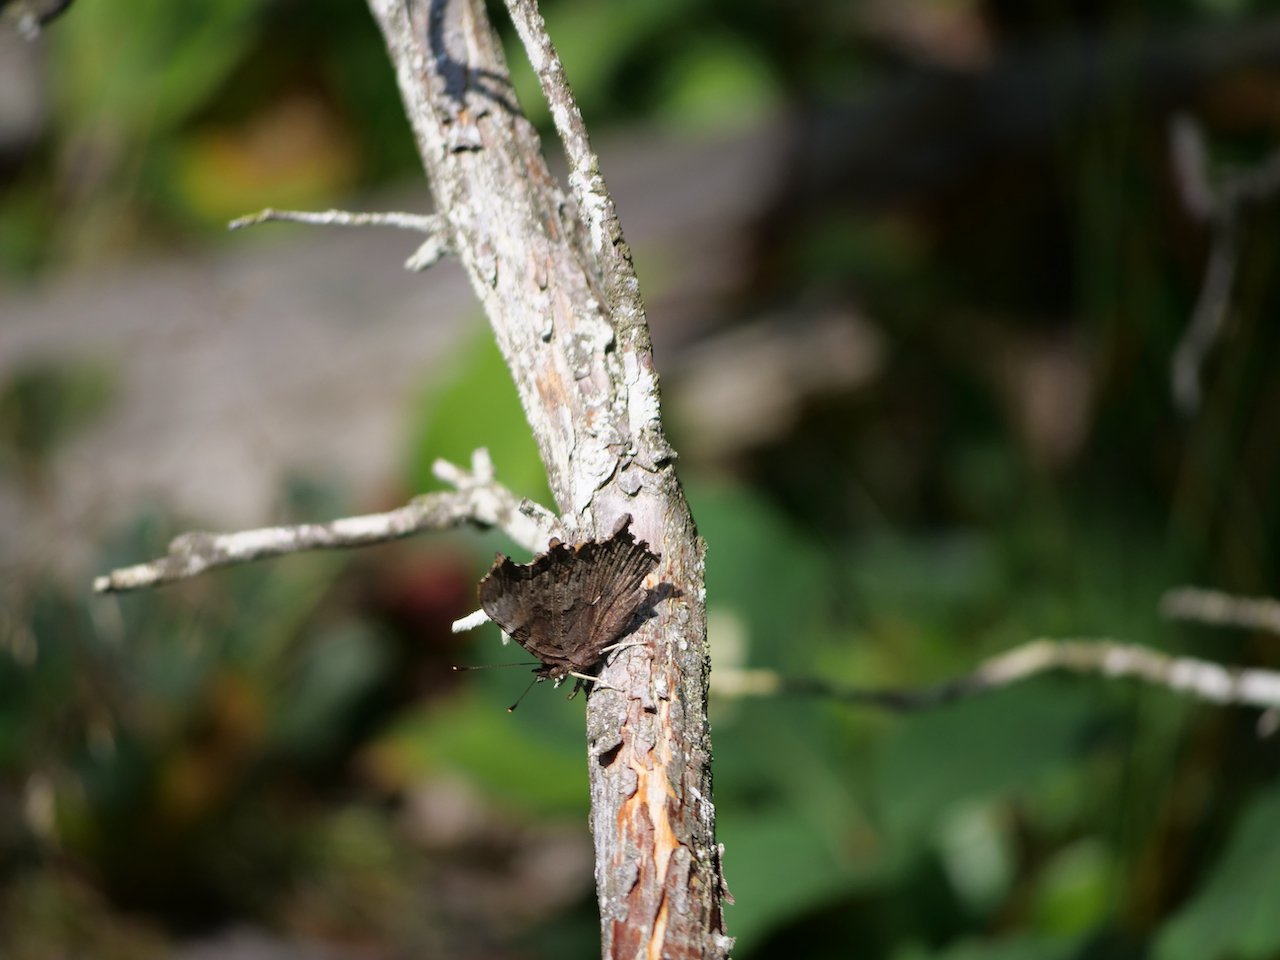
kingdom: Animalia
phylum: Arthropoda
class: Insecta
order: Lepidoptera
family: Nymphalidae
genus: Polygonia
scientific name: Polygonia faunus
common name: Green Comma
